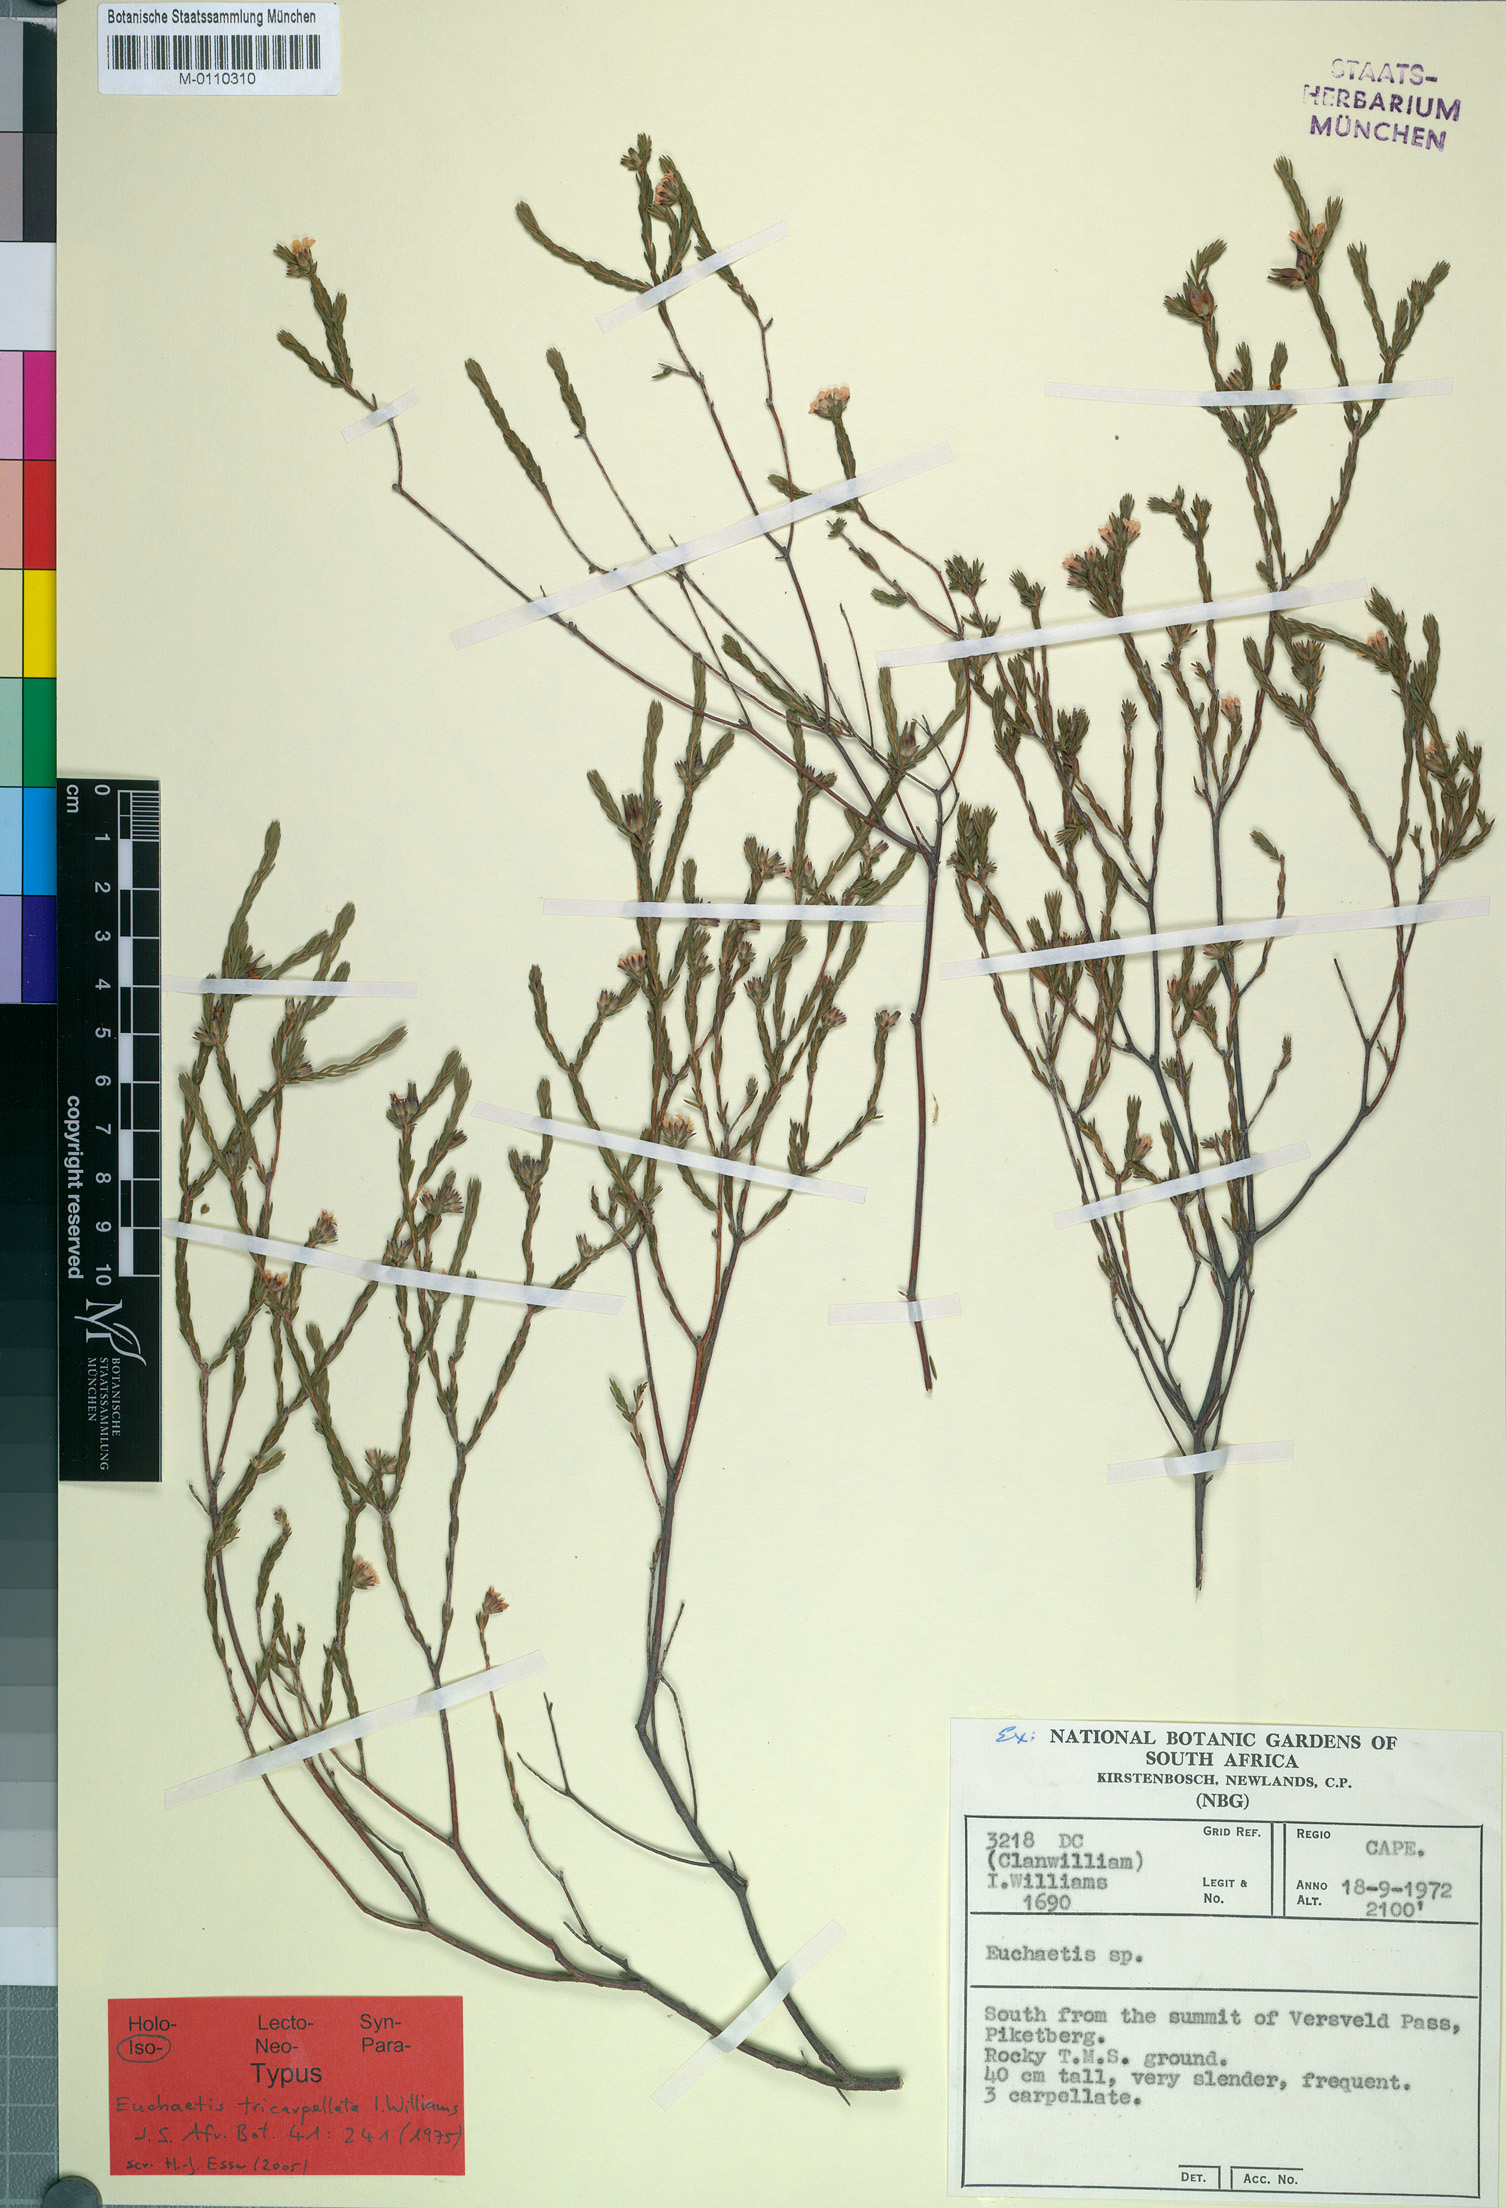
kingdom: Plantae
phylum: Tracheophyta
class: Magnoliopsida
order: Sapindales
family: Rutaceae
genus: Euchaetis
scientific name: Euchaetis tricarpellata
